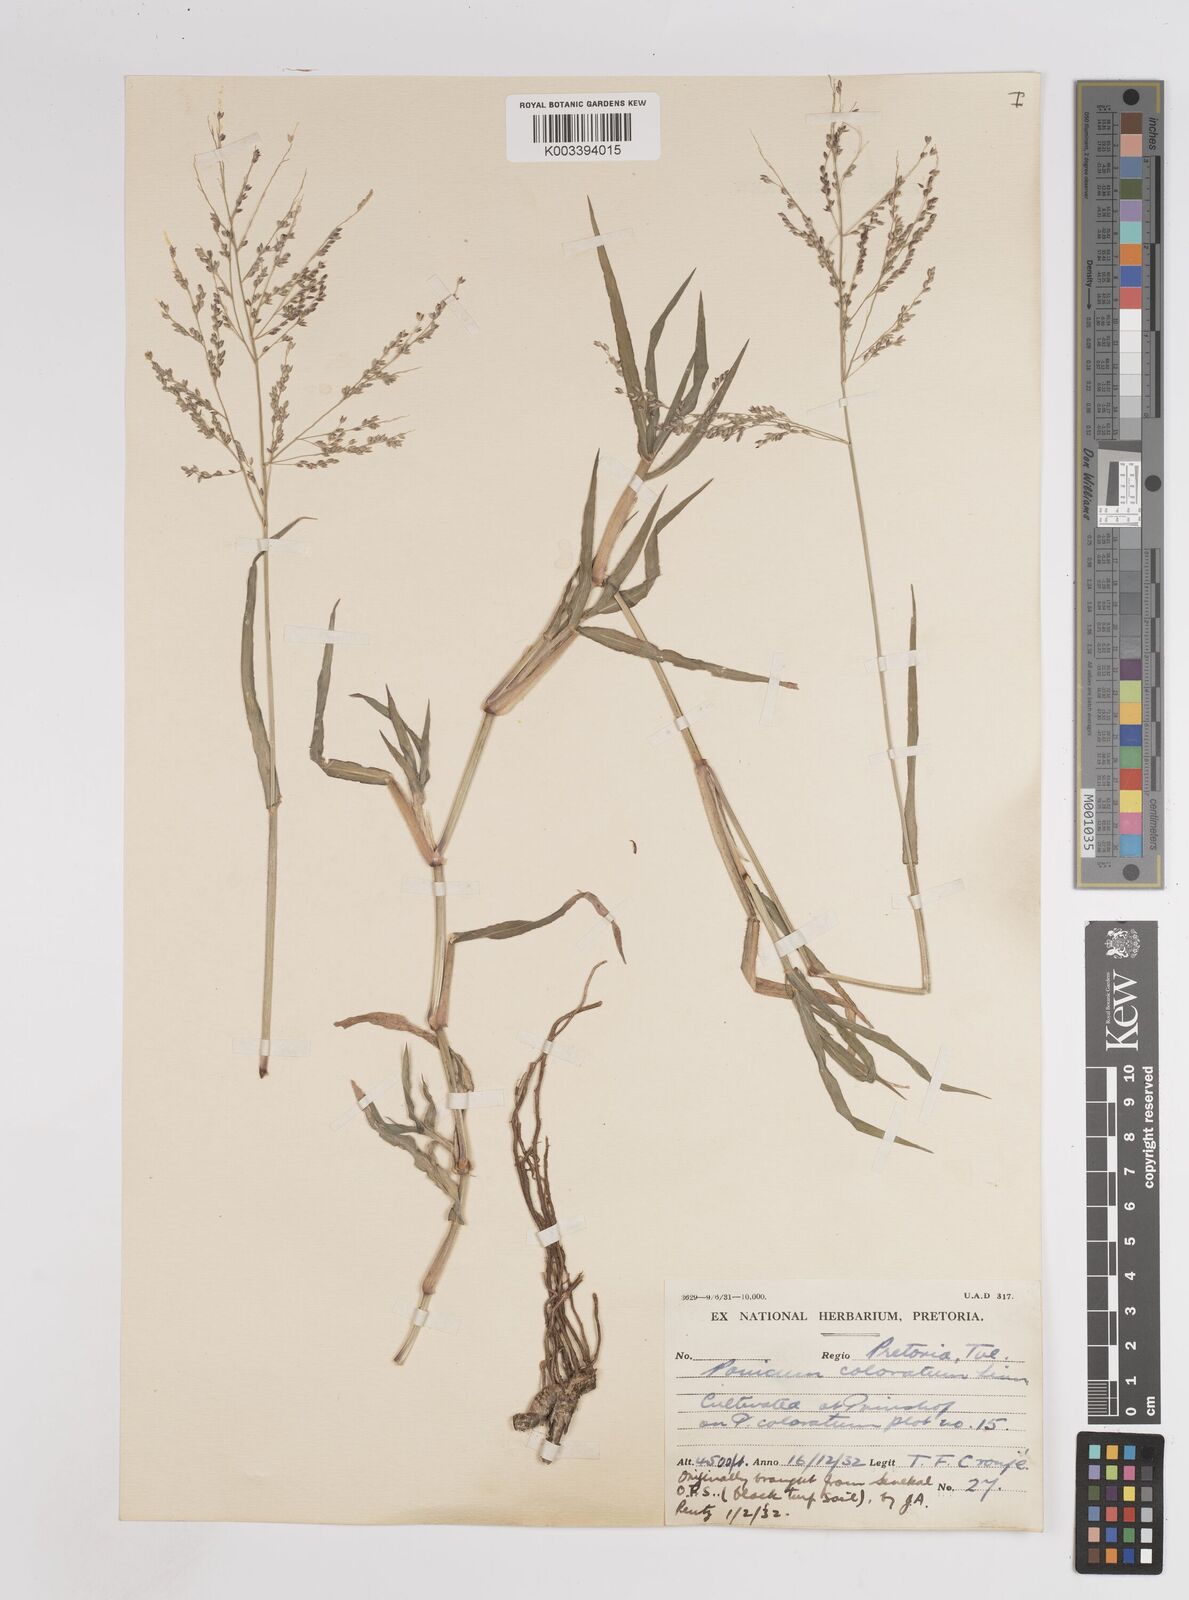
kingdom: Plantae
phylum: Tracheophyta
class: Liliopsida
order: Poales
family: Poaceae
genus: Panicum
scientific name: Panicum coloratum
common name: Kleingrass
